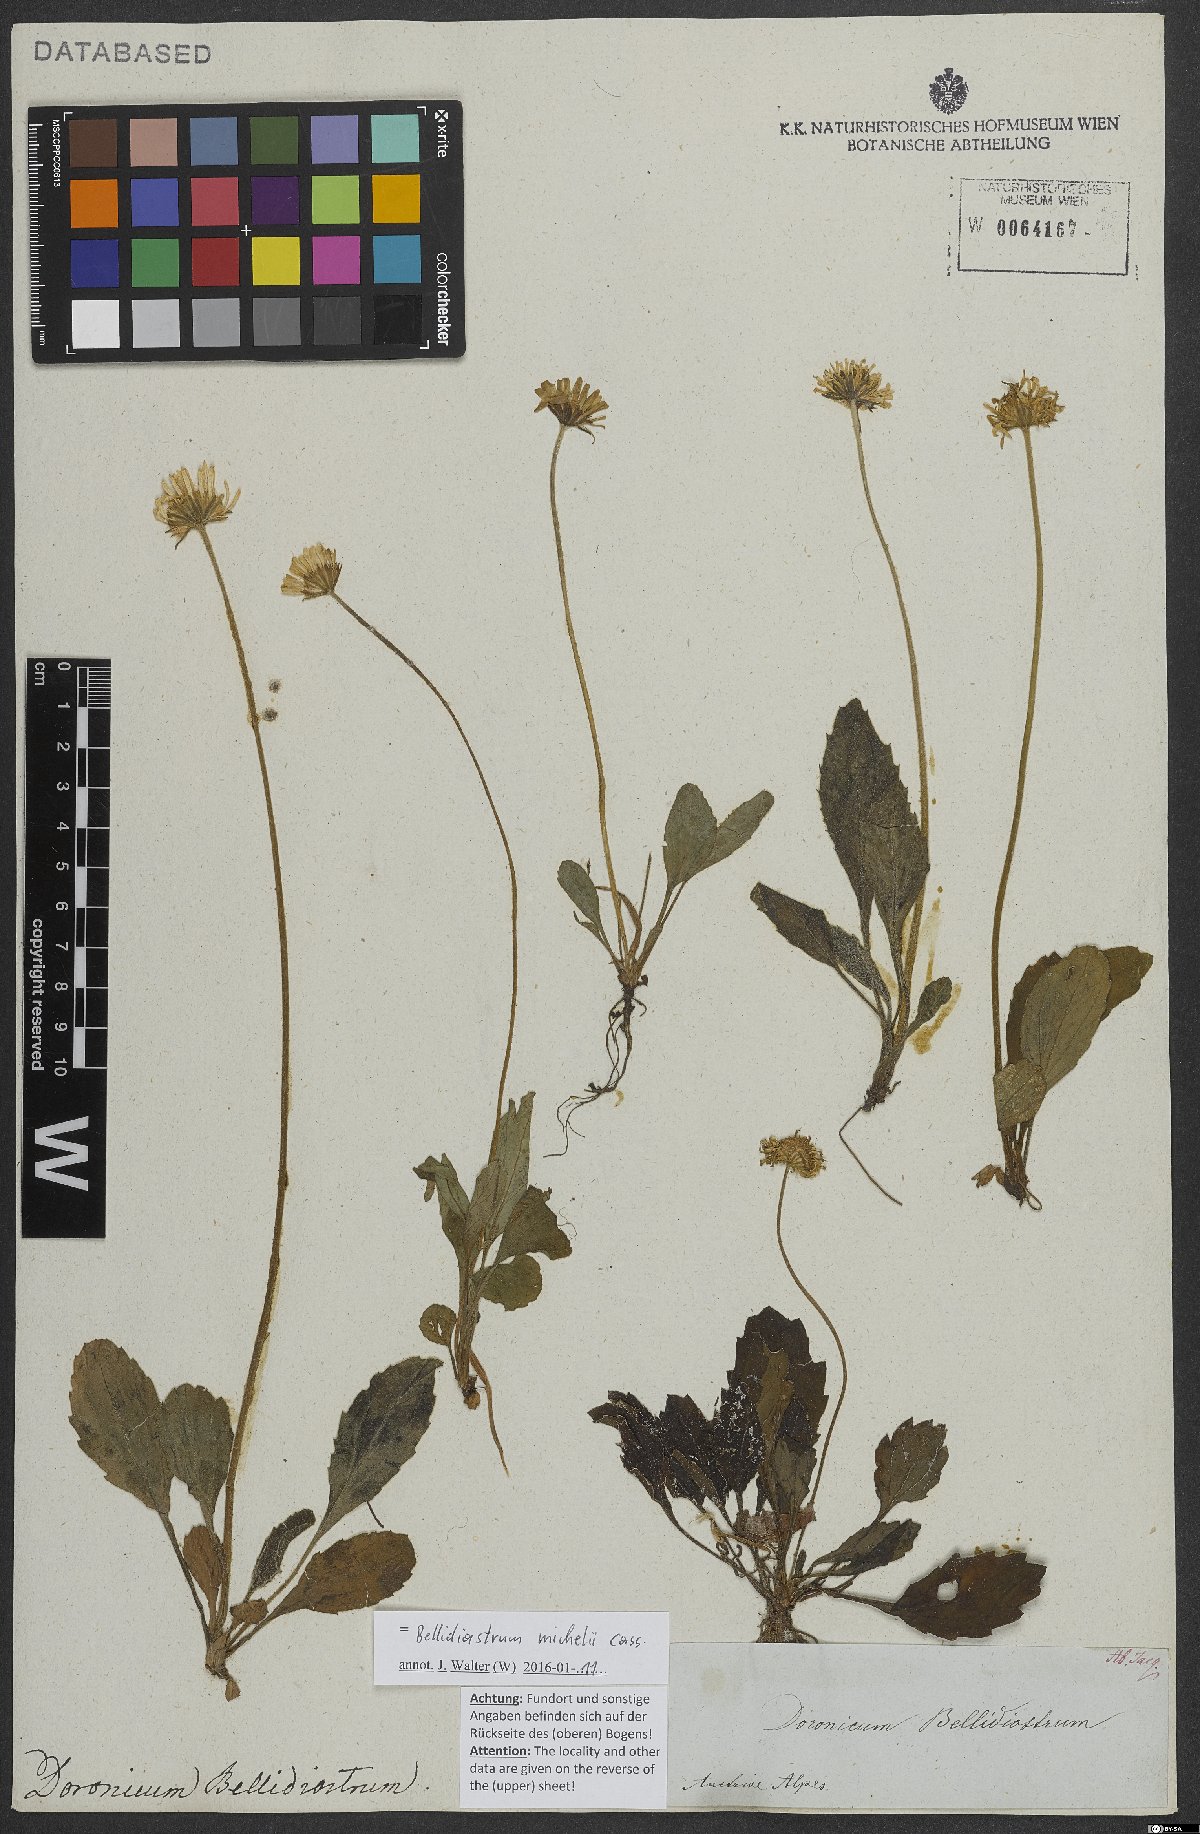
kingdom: Plantae
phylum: Tracheophyta
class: Magnoliopsida
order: Asterales
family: Asteraceae
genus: Bellidiastrum
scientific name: Bellidiastrum michelii
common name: Daisy-star aster
